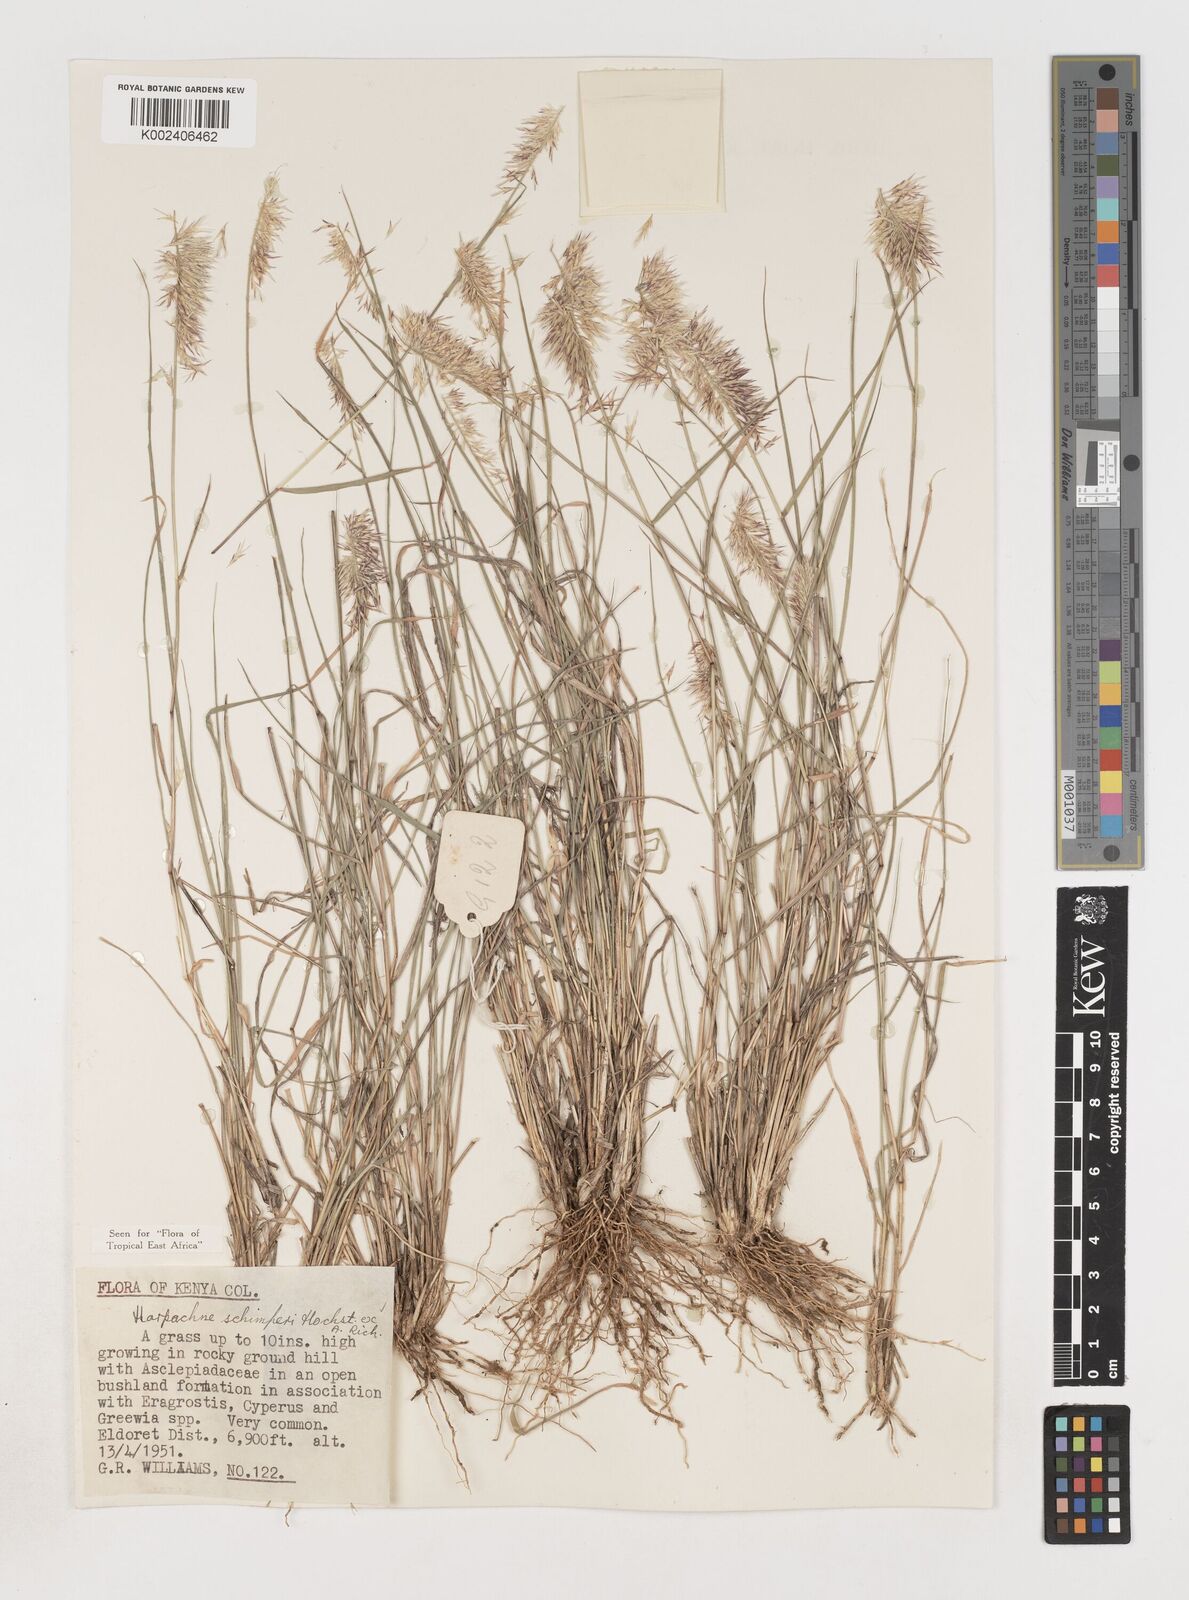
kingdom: Plantae
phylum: Tracheophyta
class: Liliopsida
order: Poales
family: Poaceae
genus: Harpachne
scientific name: Harpachne schimperi
